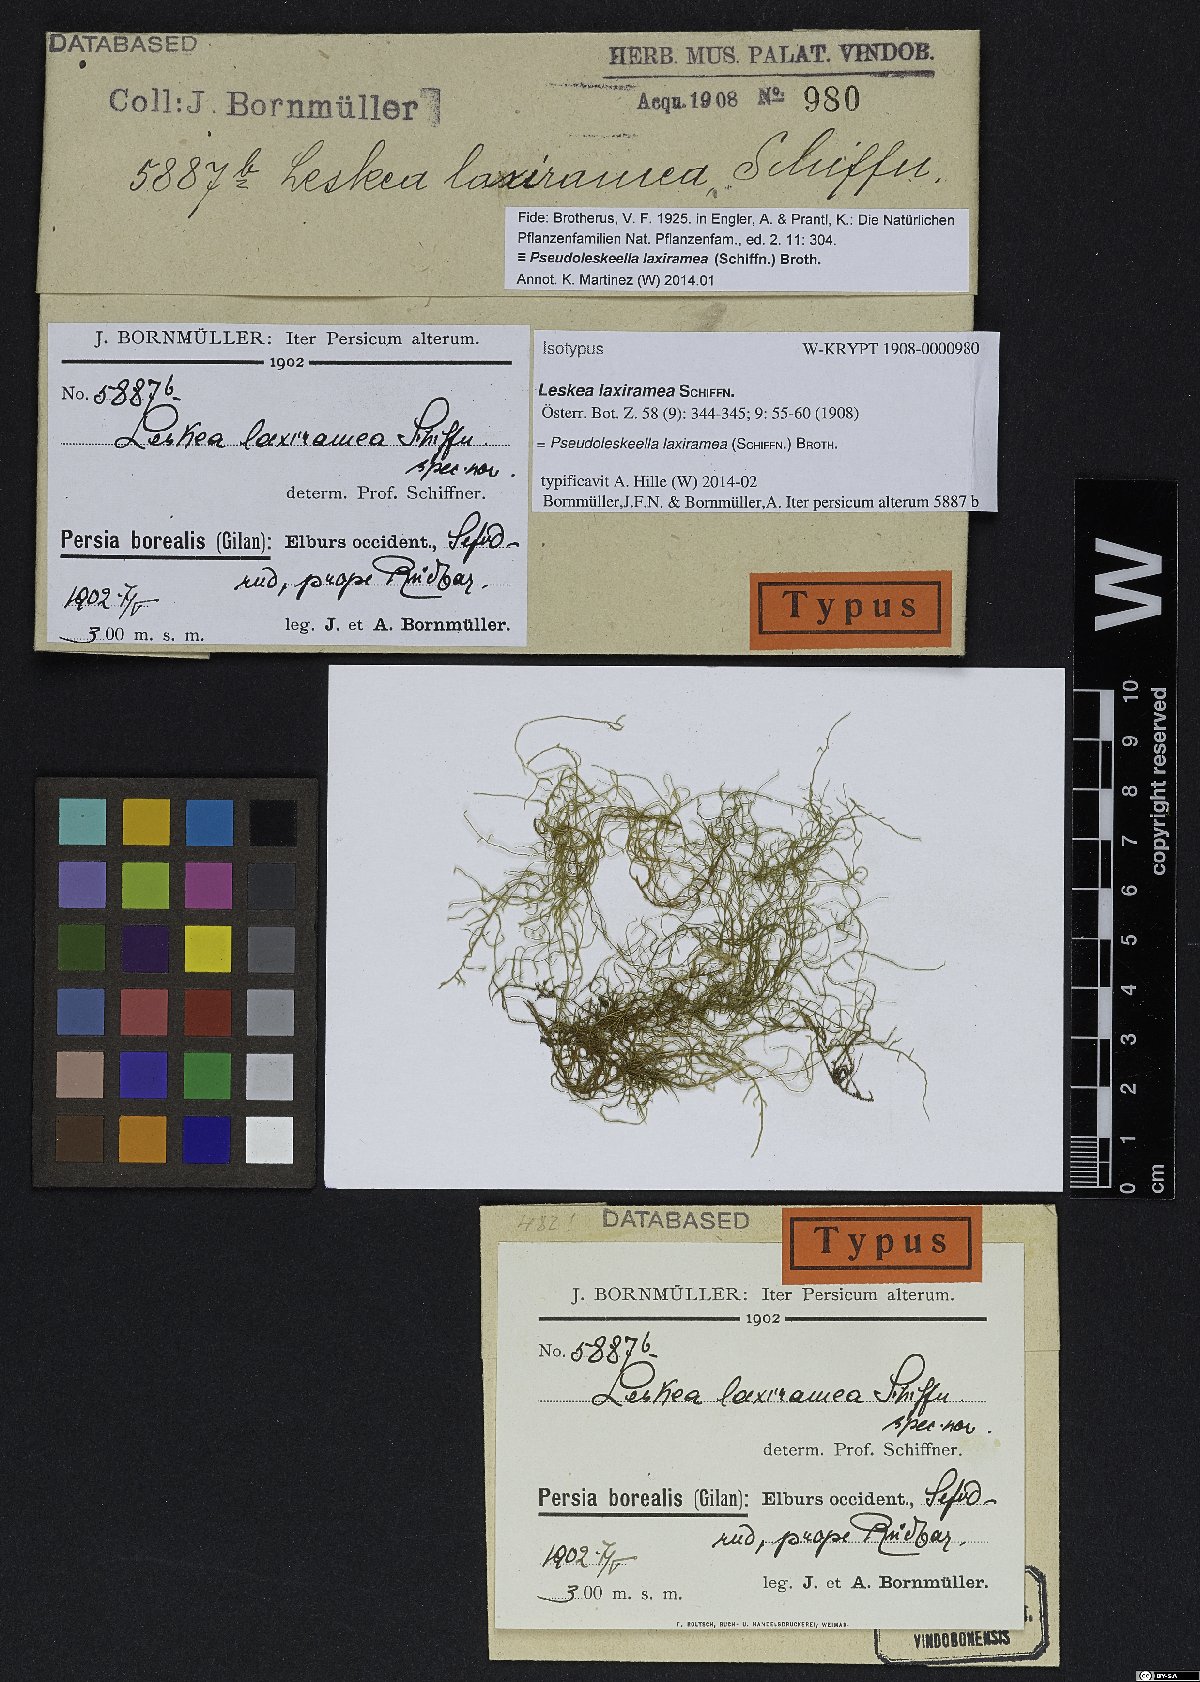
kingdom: Plantae
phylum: Bryophyta
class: Bryopsida
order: Hypnales
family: Neckeraceae
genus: Leptodon
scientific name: Leptodon remotifolius
